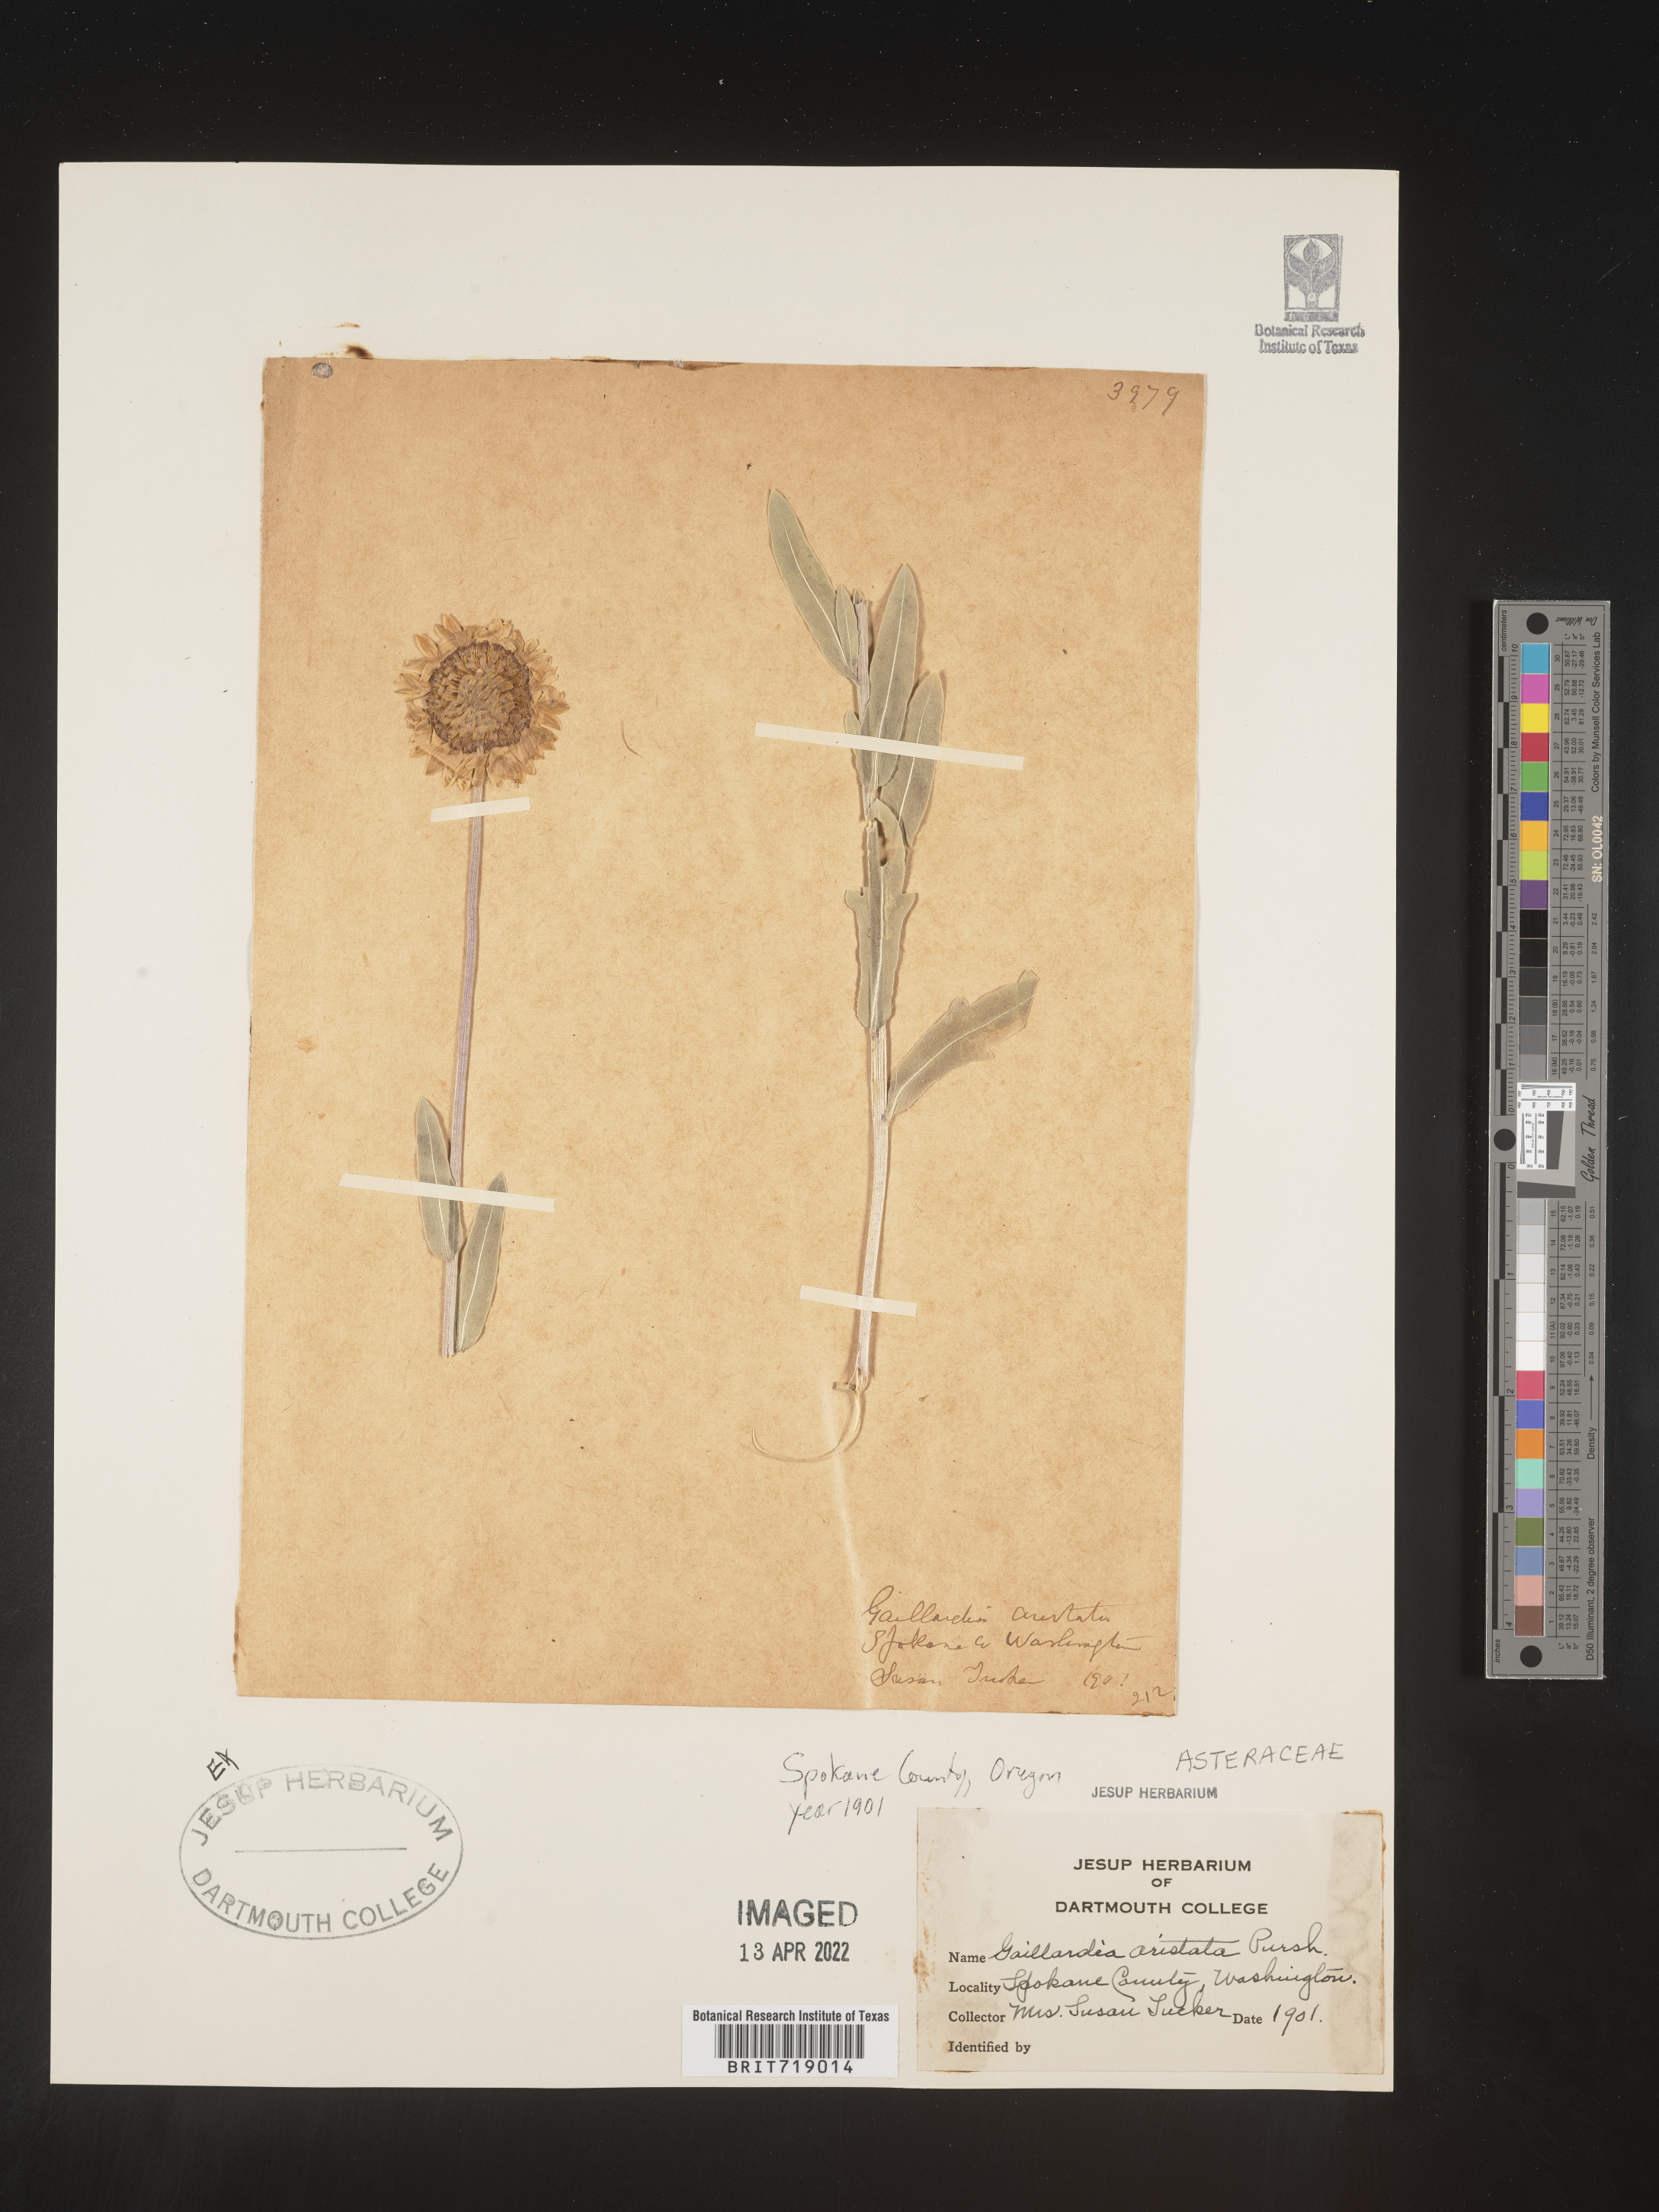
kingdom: Plantae
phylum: Tracheophyta
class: Magnoliopsida
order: Asterales
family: Asteraceae
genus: Gaillardia
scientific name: Gaillardia aristata
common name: Blanket-flower
